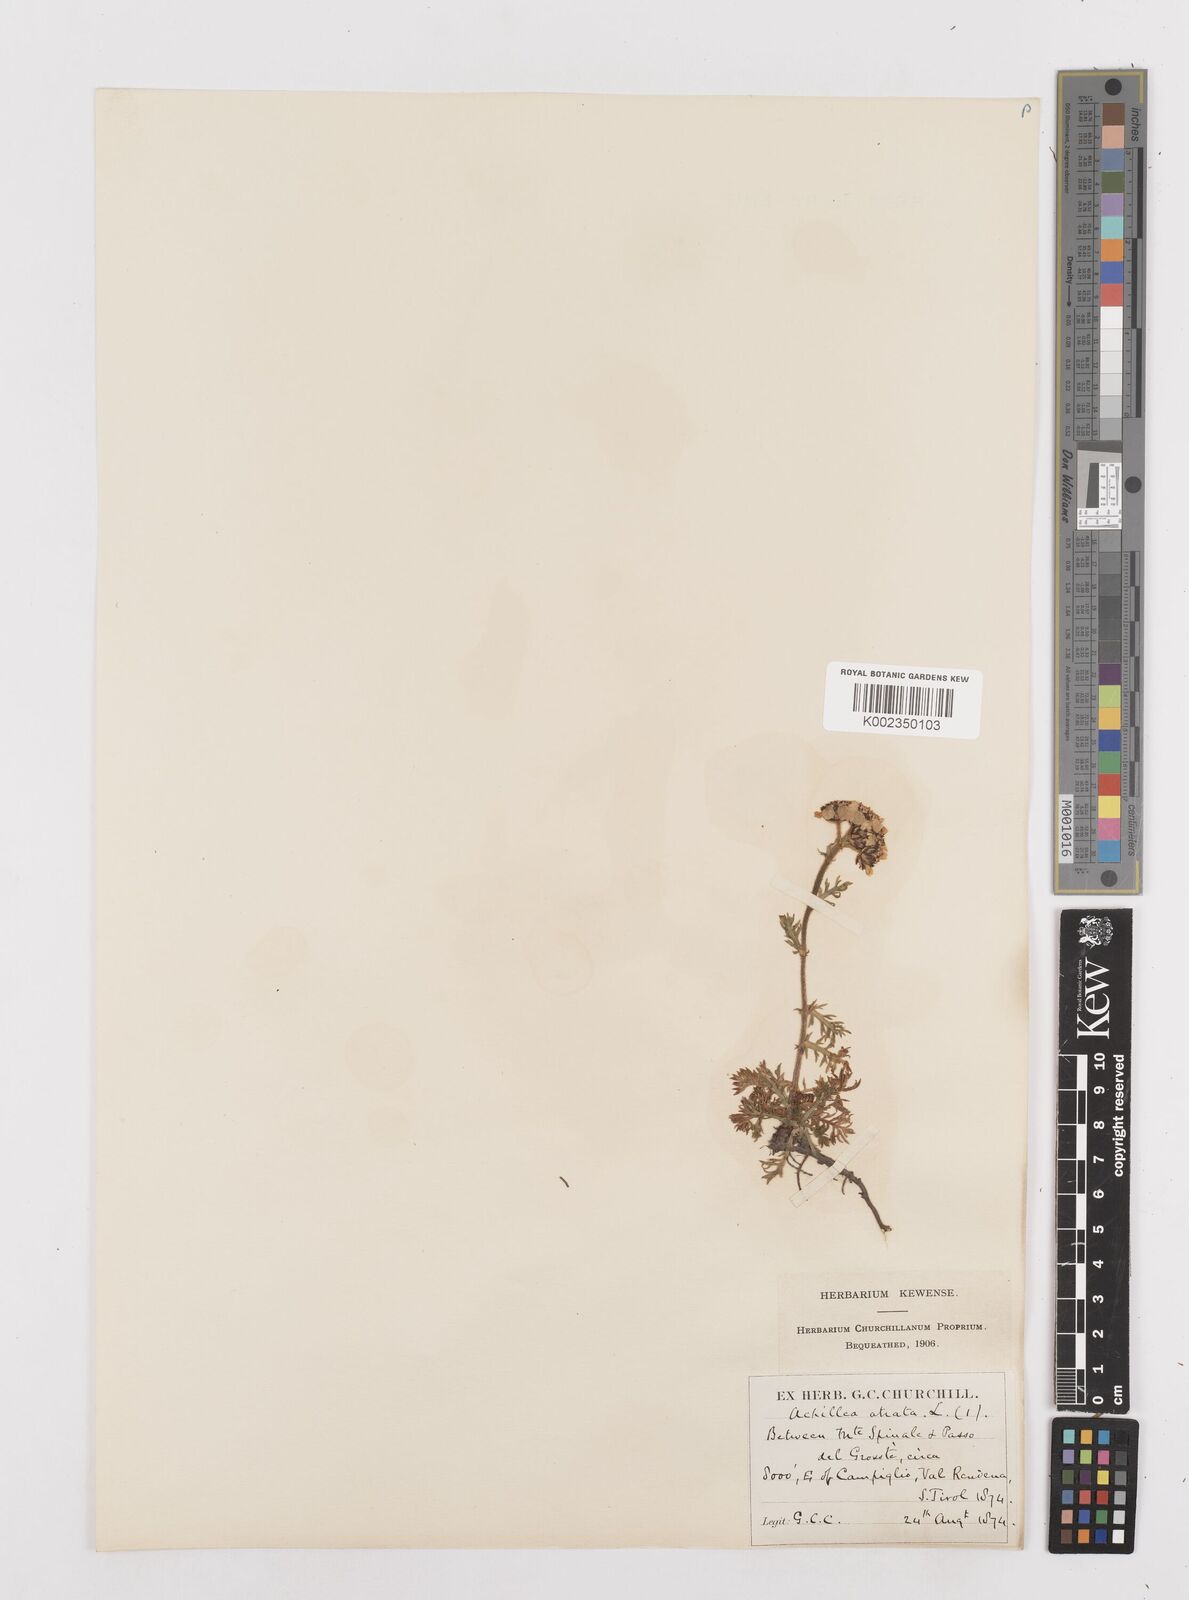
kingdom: Plantae
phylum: Tracheophyta
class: Magnoliopsida
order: Asterales
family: Asteraceae
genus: Achillea
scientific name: Achillea atrata
